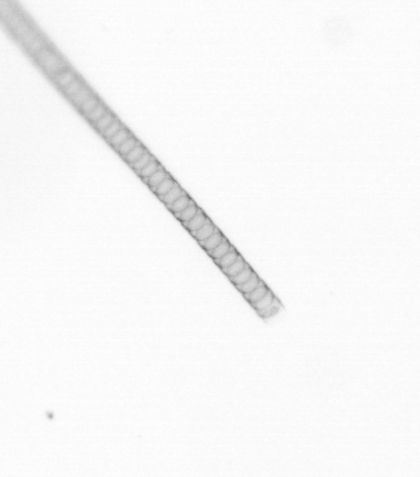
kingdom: Chromista
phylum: Ochrophyta
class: Bacillariophyceae
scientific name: Bacillariophyceae
